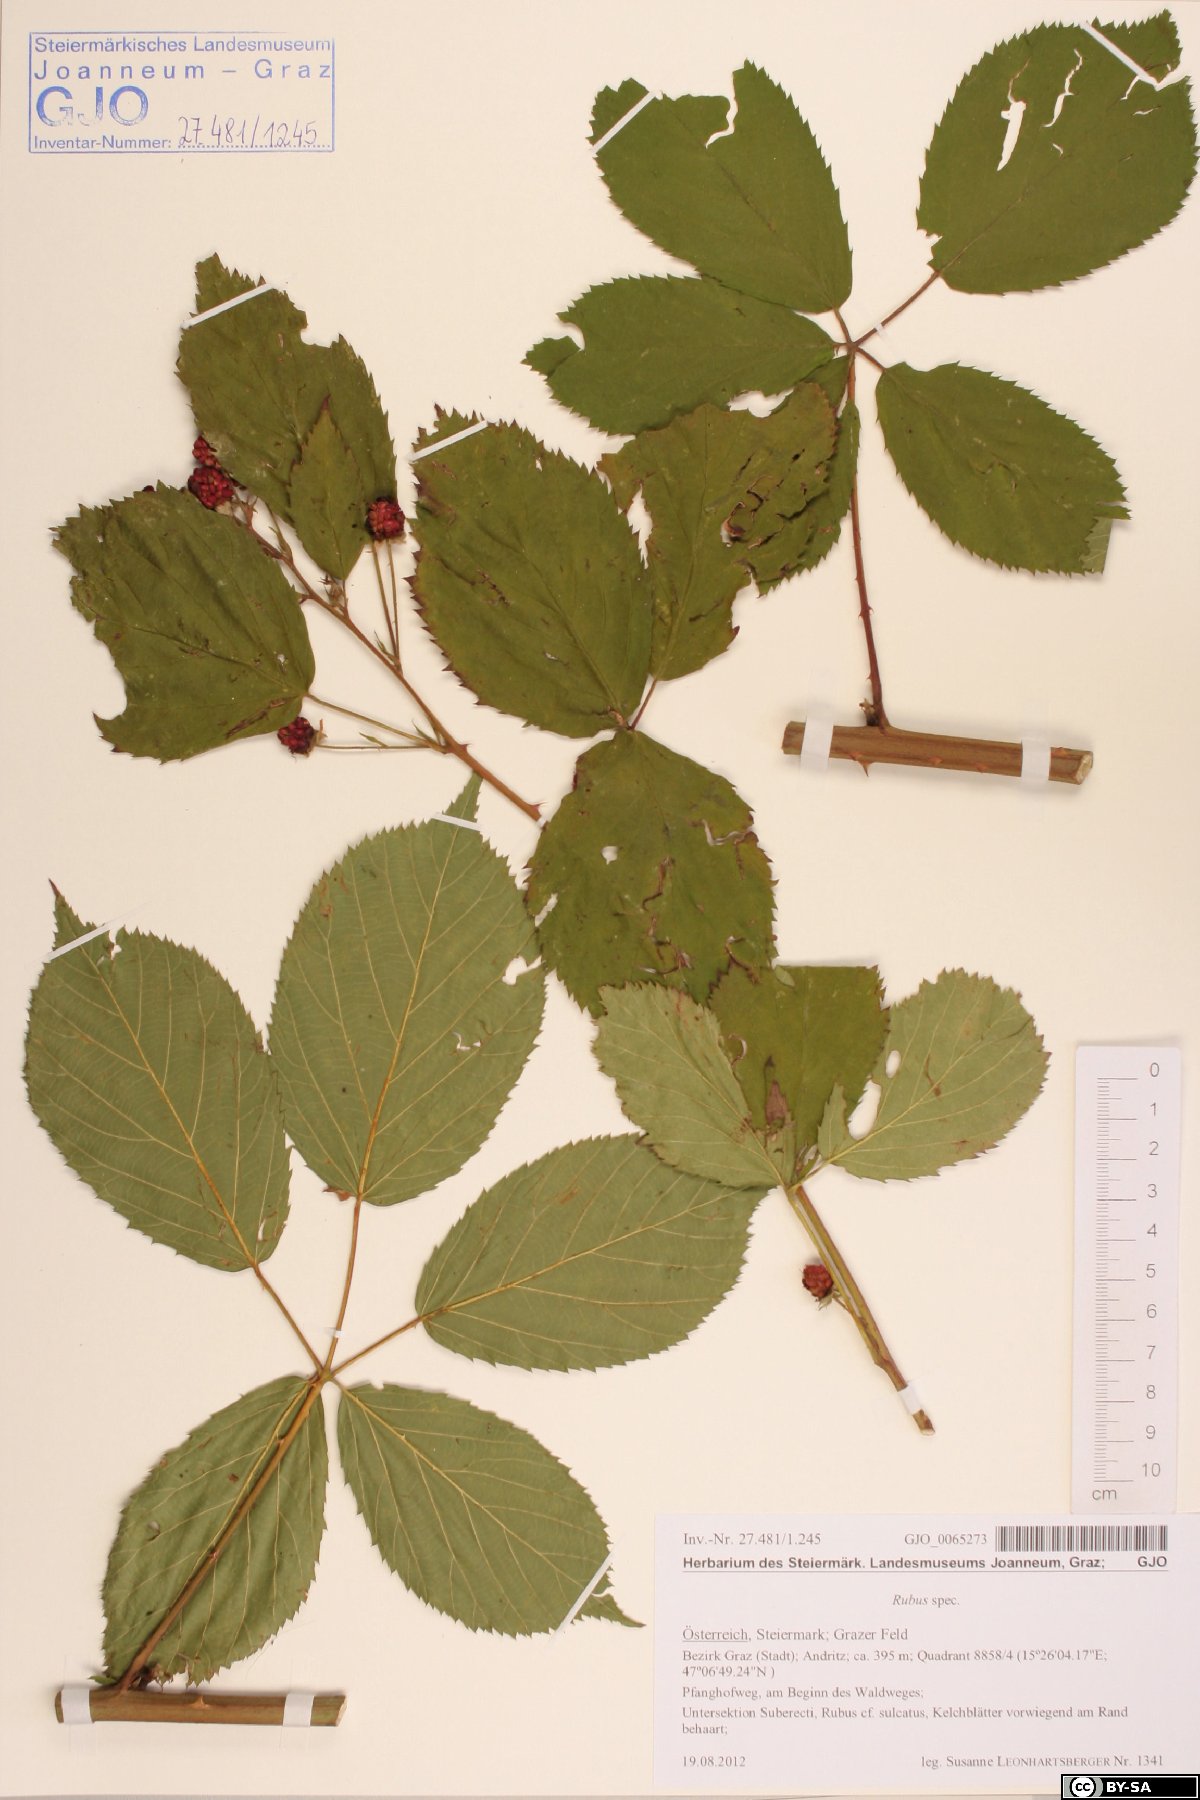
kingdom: Plantae
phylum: Tracheophyta
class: Magnoliopsida
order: Rosales
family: Rosaceae
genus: Rubus
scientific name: Rubus
